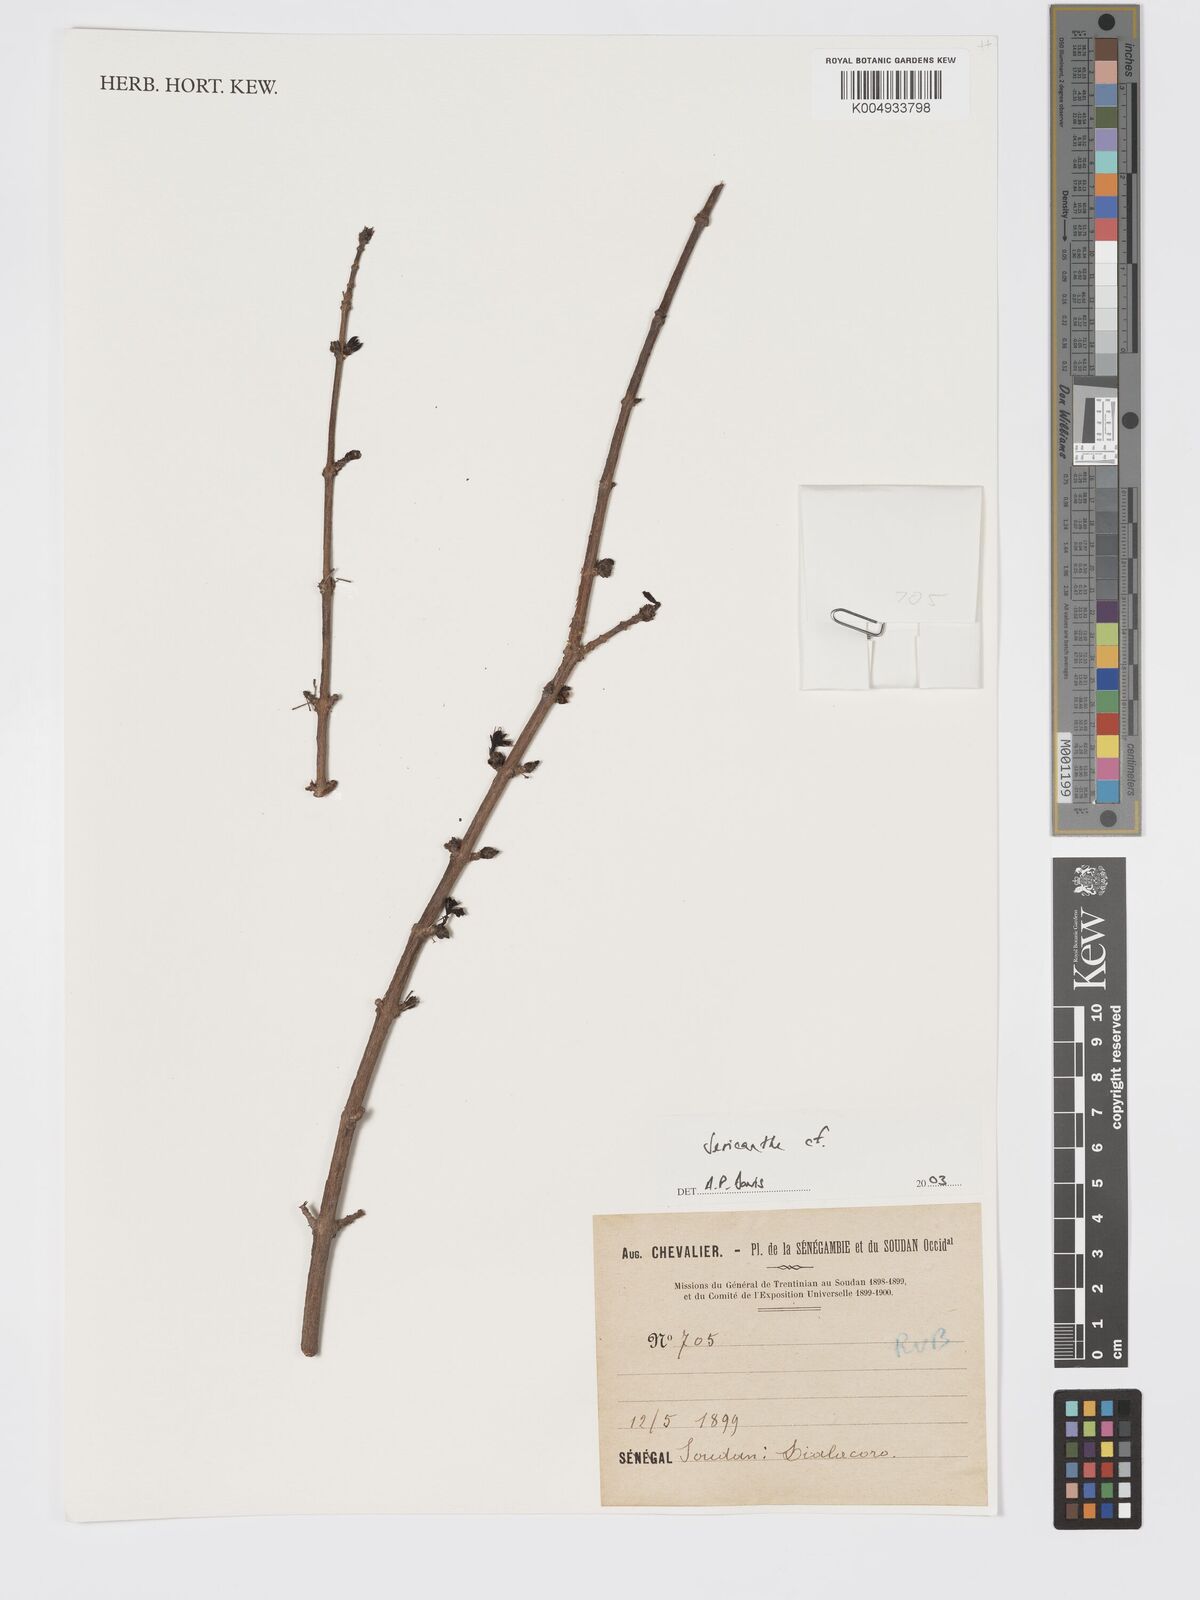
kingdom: Plantae
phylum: Tracheophyta
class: Magnoliopsida
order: Gentianales
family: Rubiaceae
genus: Sericanthe
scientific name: Sericanthe
